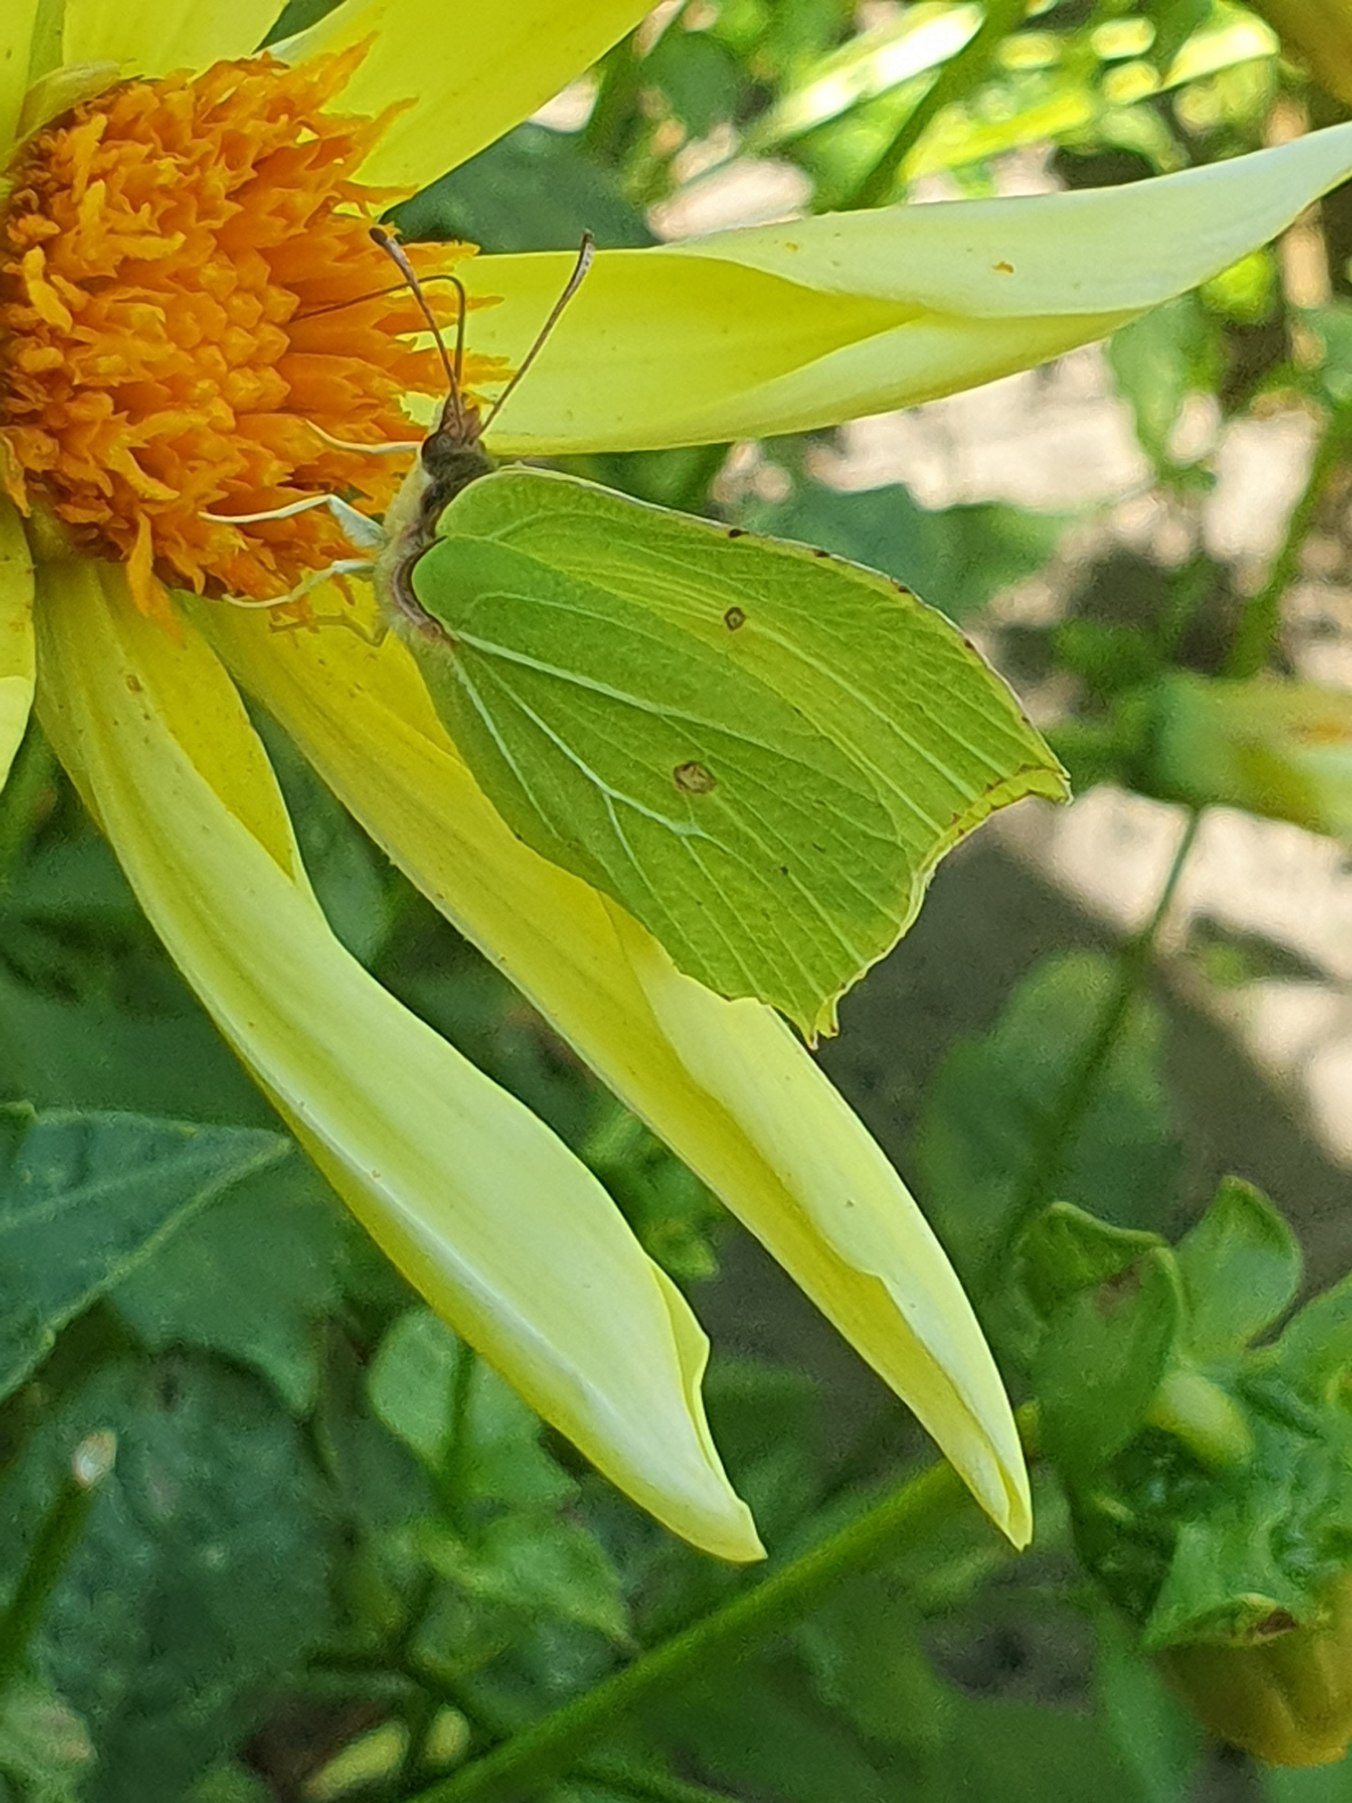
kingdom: Animalia
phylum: Arthropoda
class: Insecta
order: Lepidoptera
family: Pieridae
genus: Gonepteryx
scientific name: Gonepteryx rhamni
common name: Citronsommerfugl
